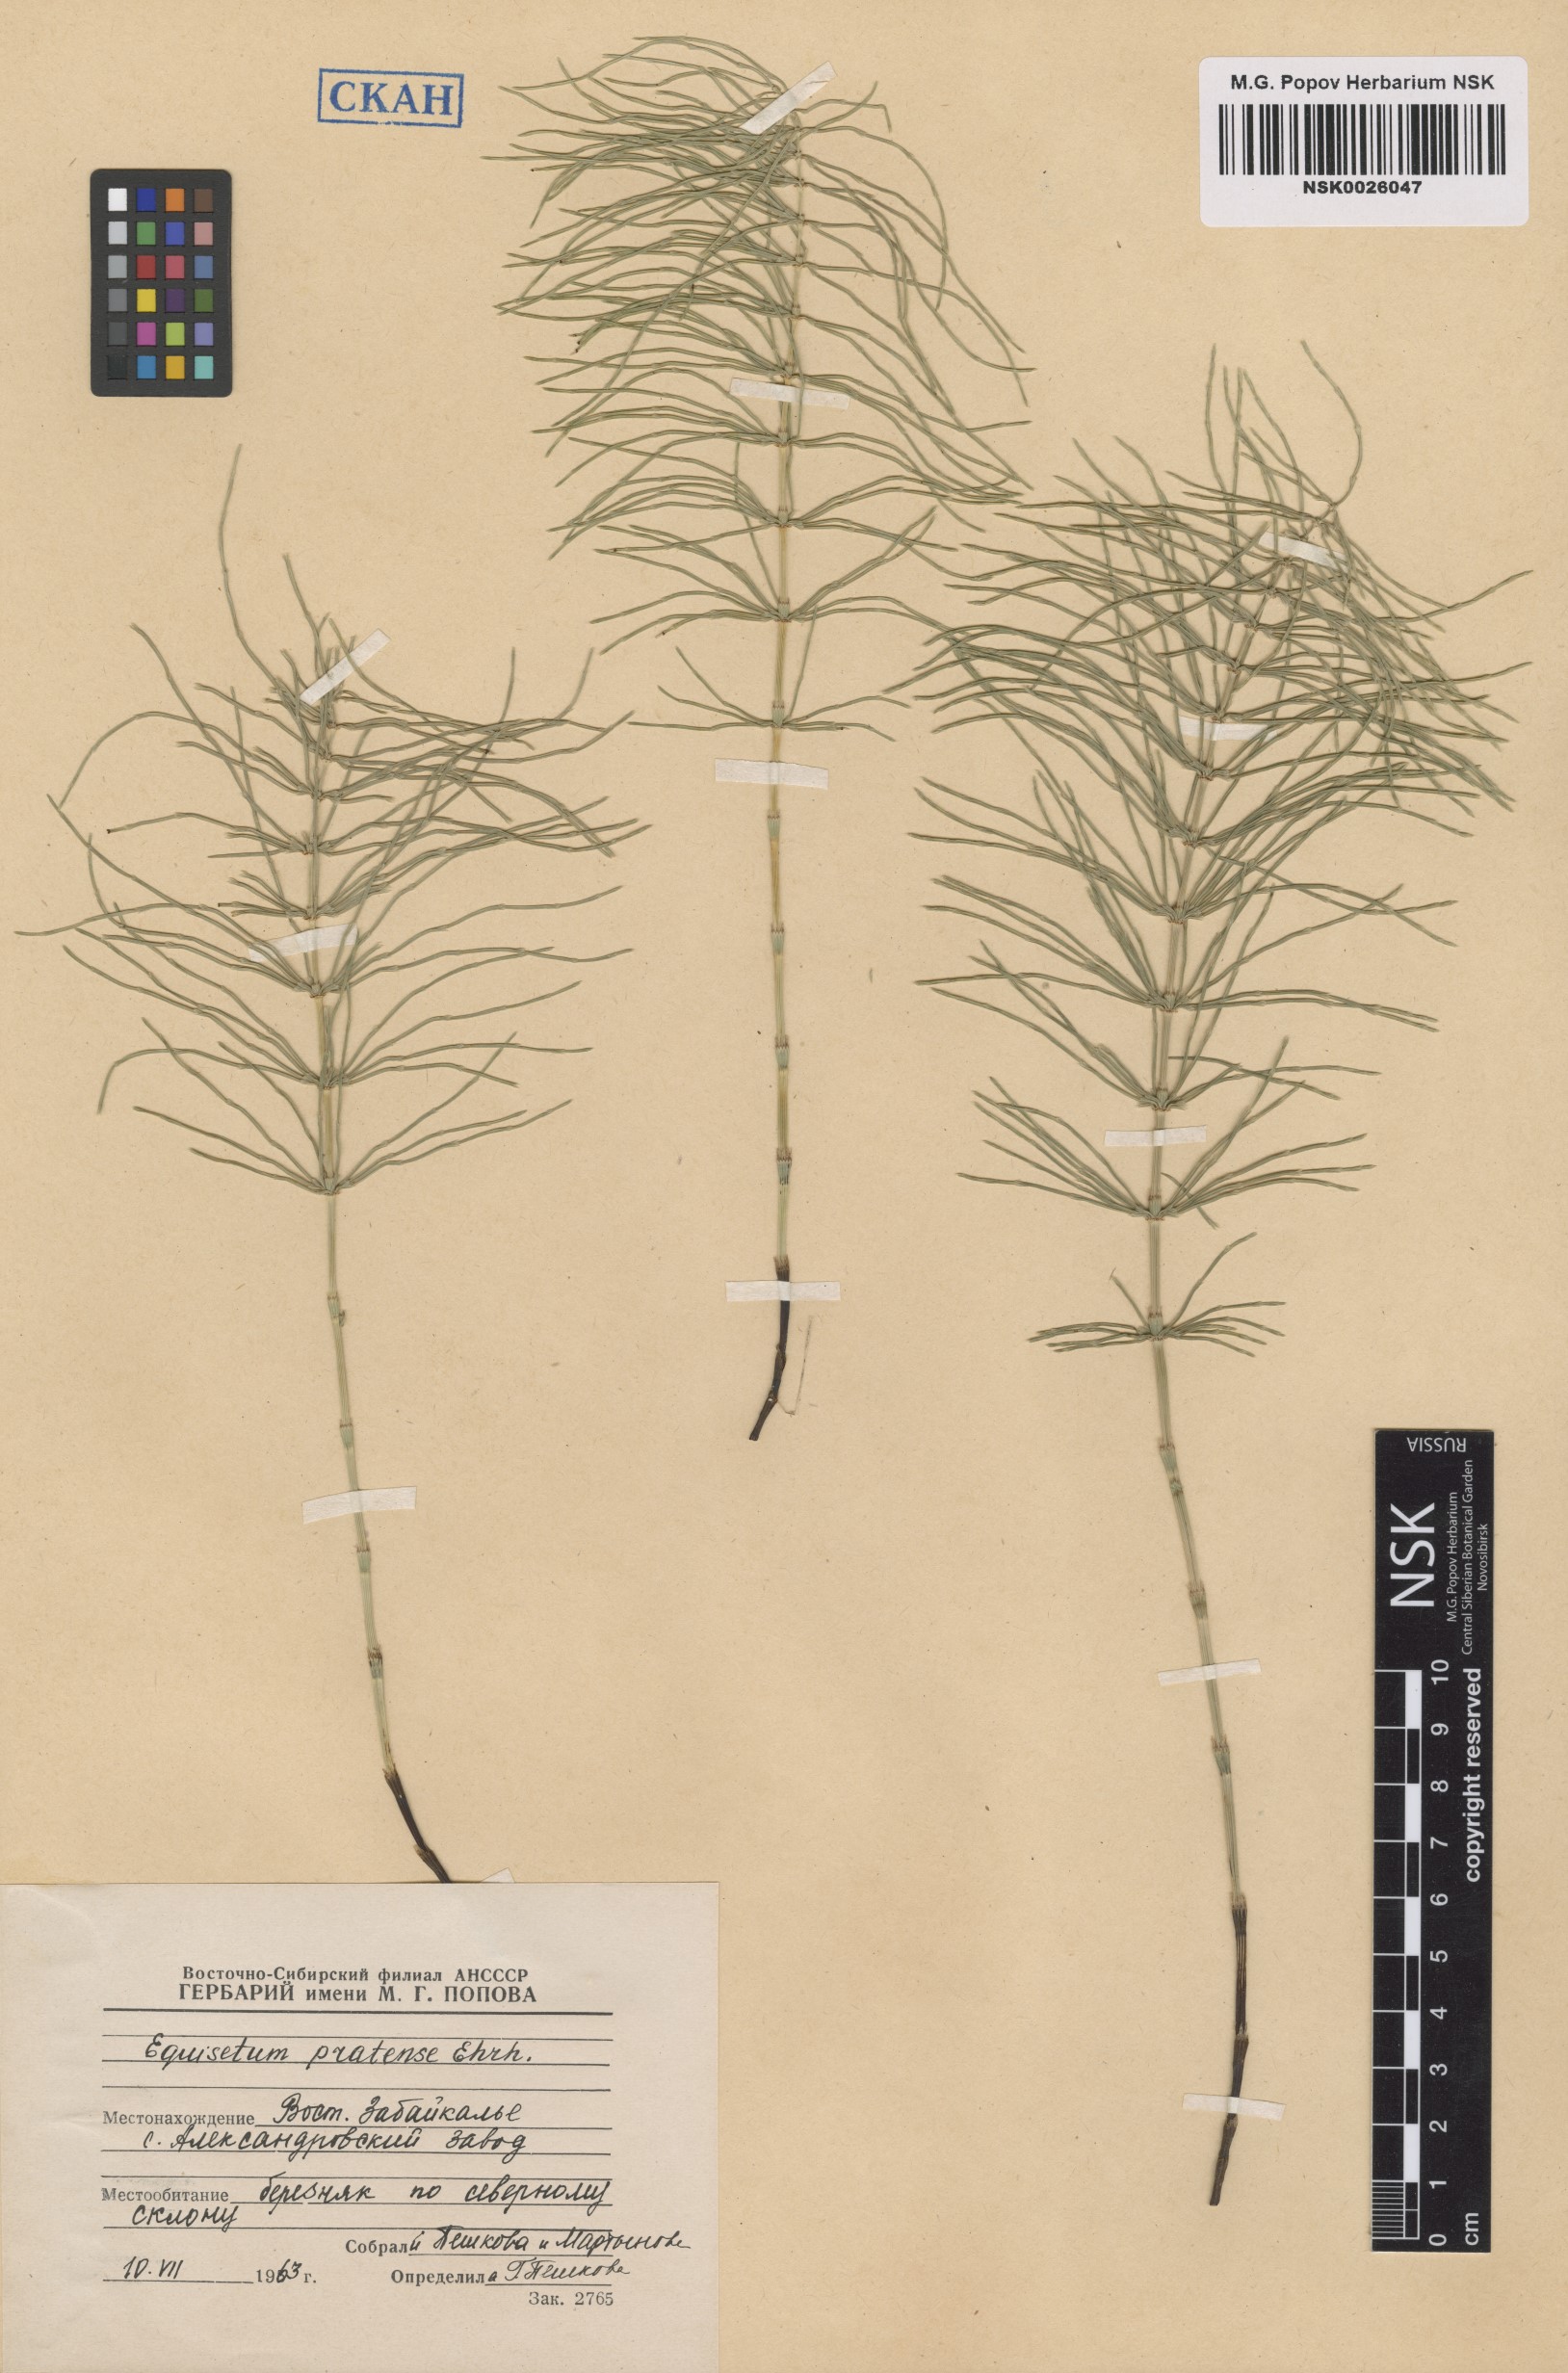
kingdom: Plantae
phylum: Tracheophyta
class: Polypodiopsida
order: Equisetales
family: Equisetaceae
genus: Equisetum
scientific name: Equisetum pratense
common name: Meadow horsetail
